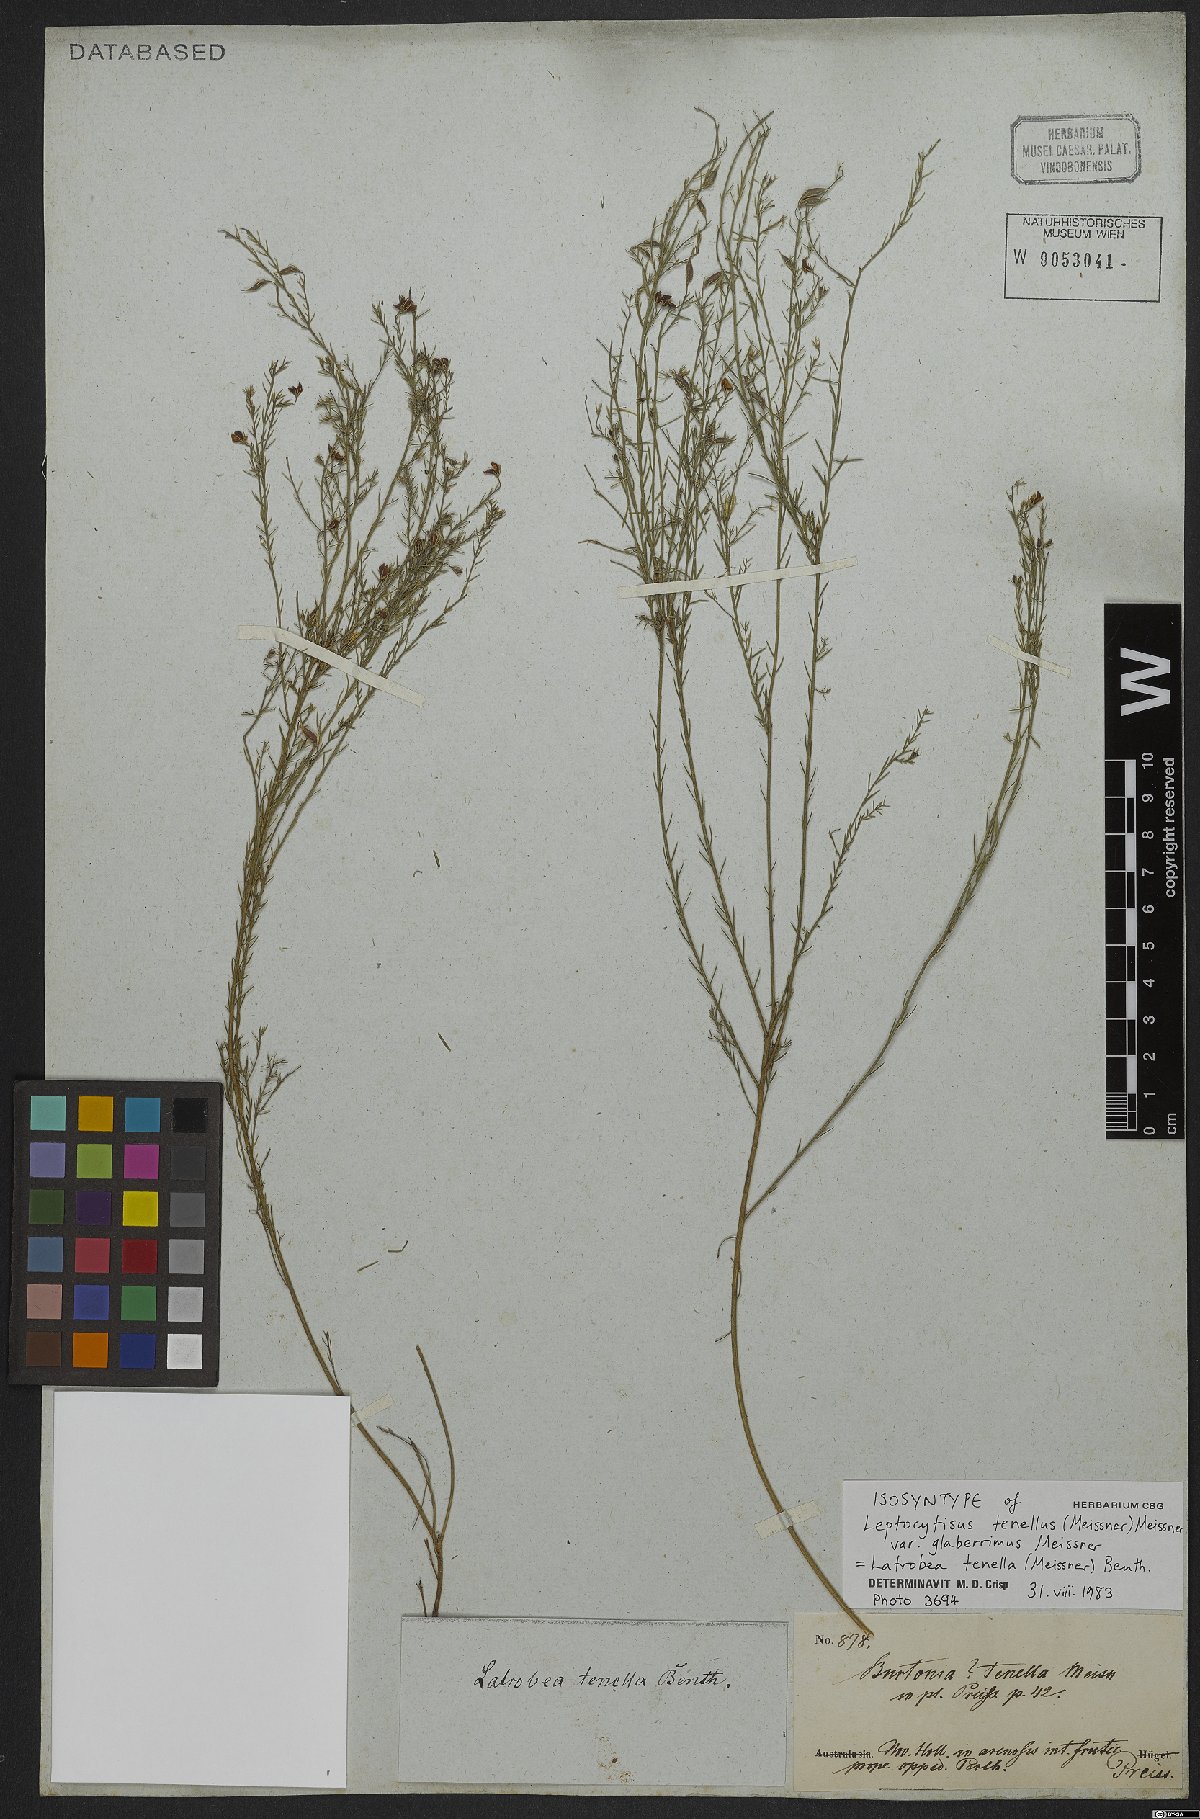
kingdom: Plantae
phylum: Tracheophyta
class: Magnoliopsida
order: Fabales
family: Fabaceae
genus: Latrobea
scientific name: Latrobea tenella
